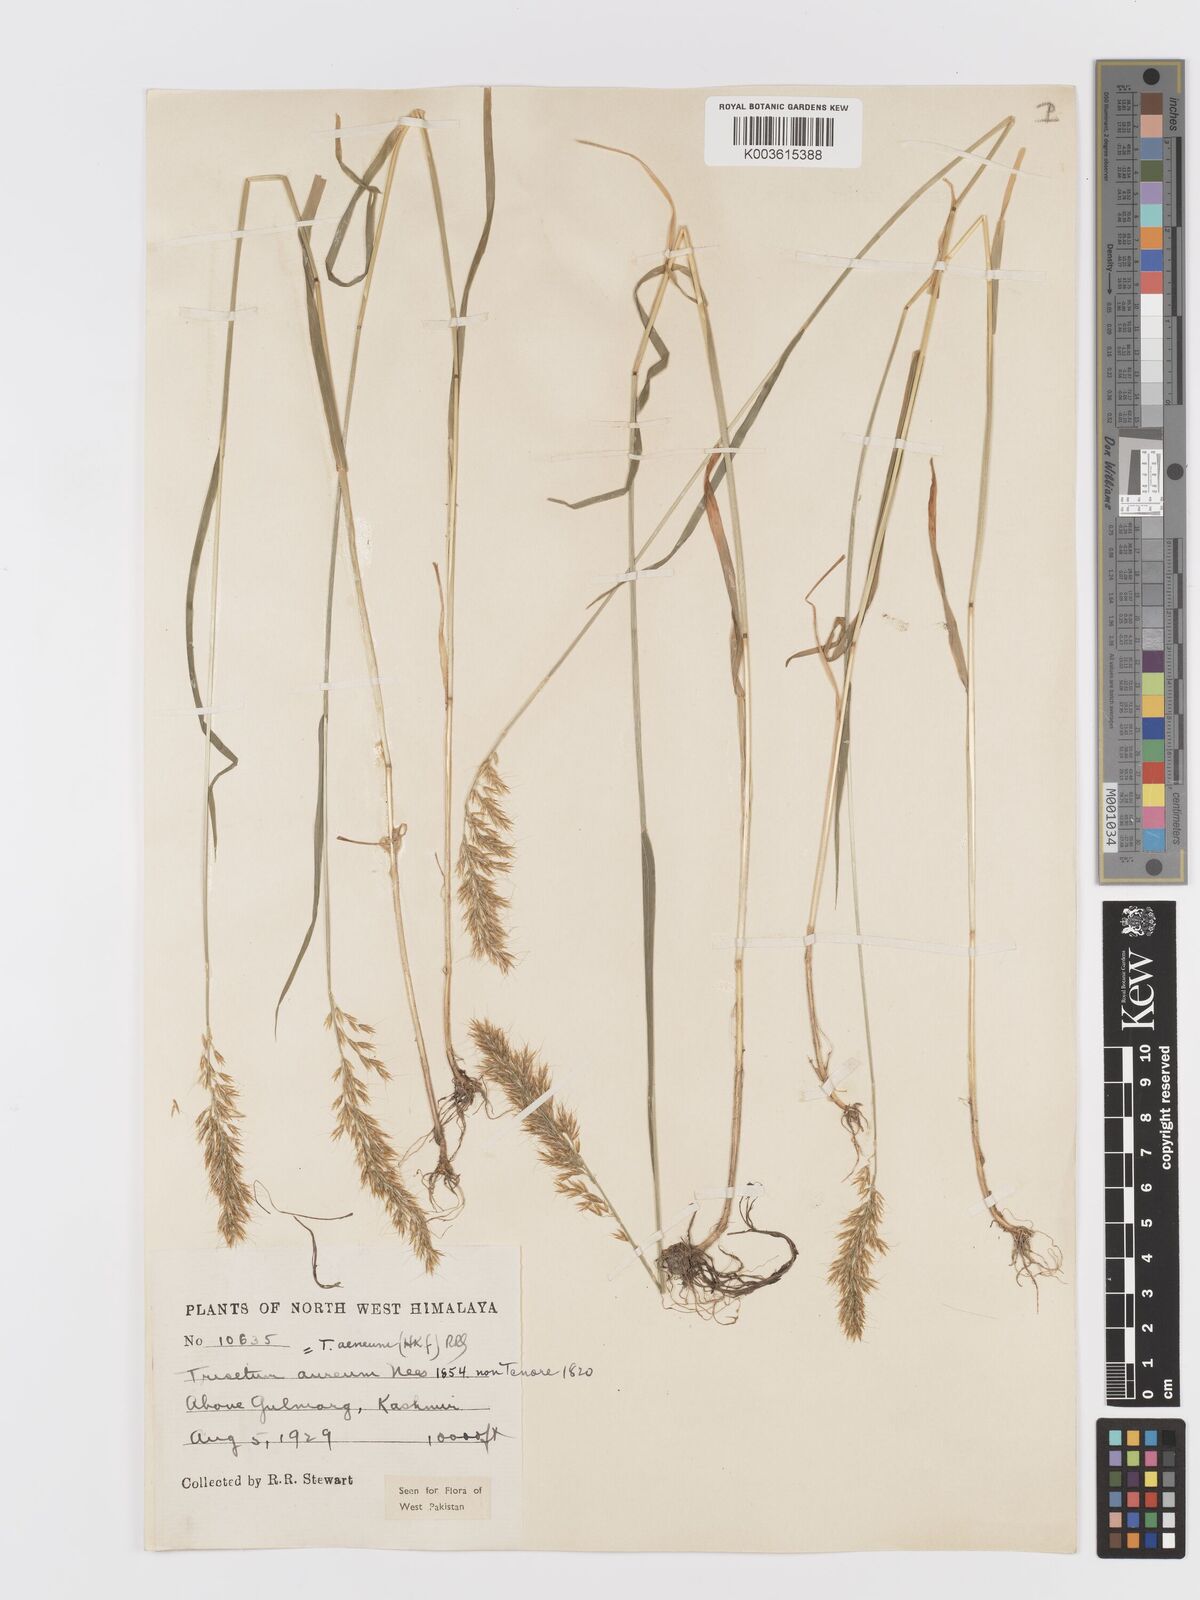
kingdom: Plantae
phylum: Tracheophyta
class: Liliopsida
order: Poales
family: Poaceae
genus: Sibirotrisetum
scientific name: Sibirotrisetum aeneum
